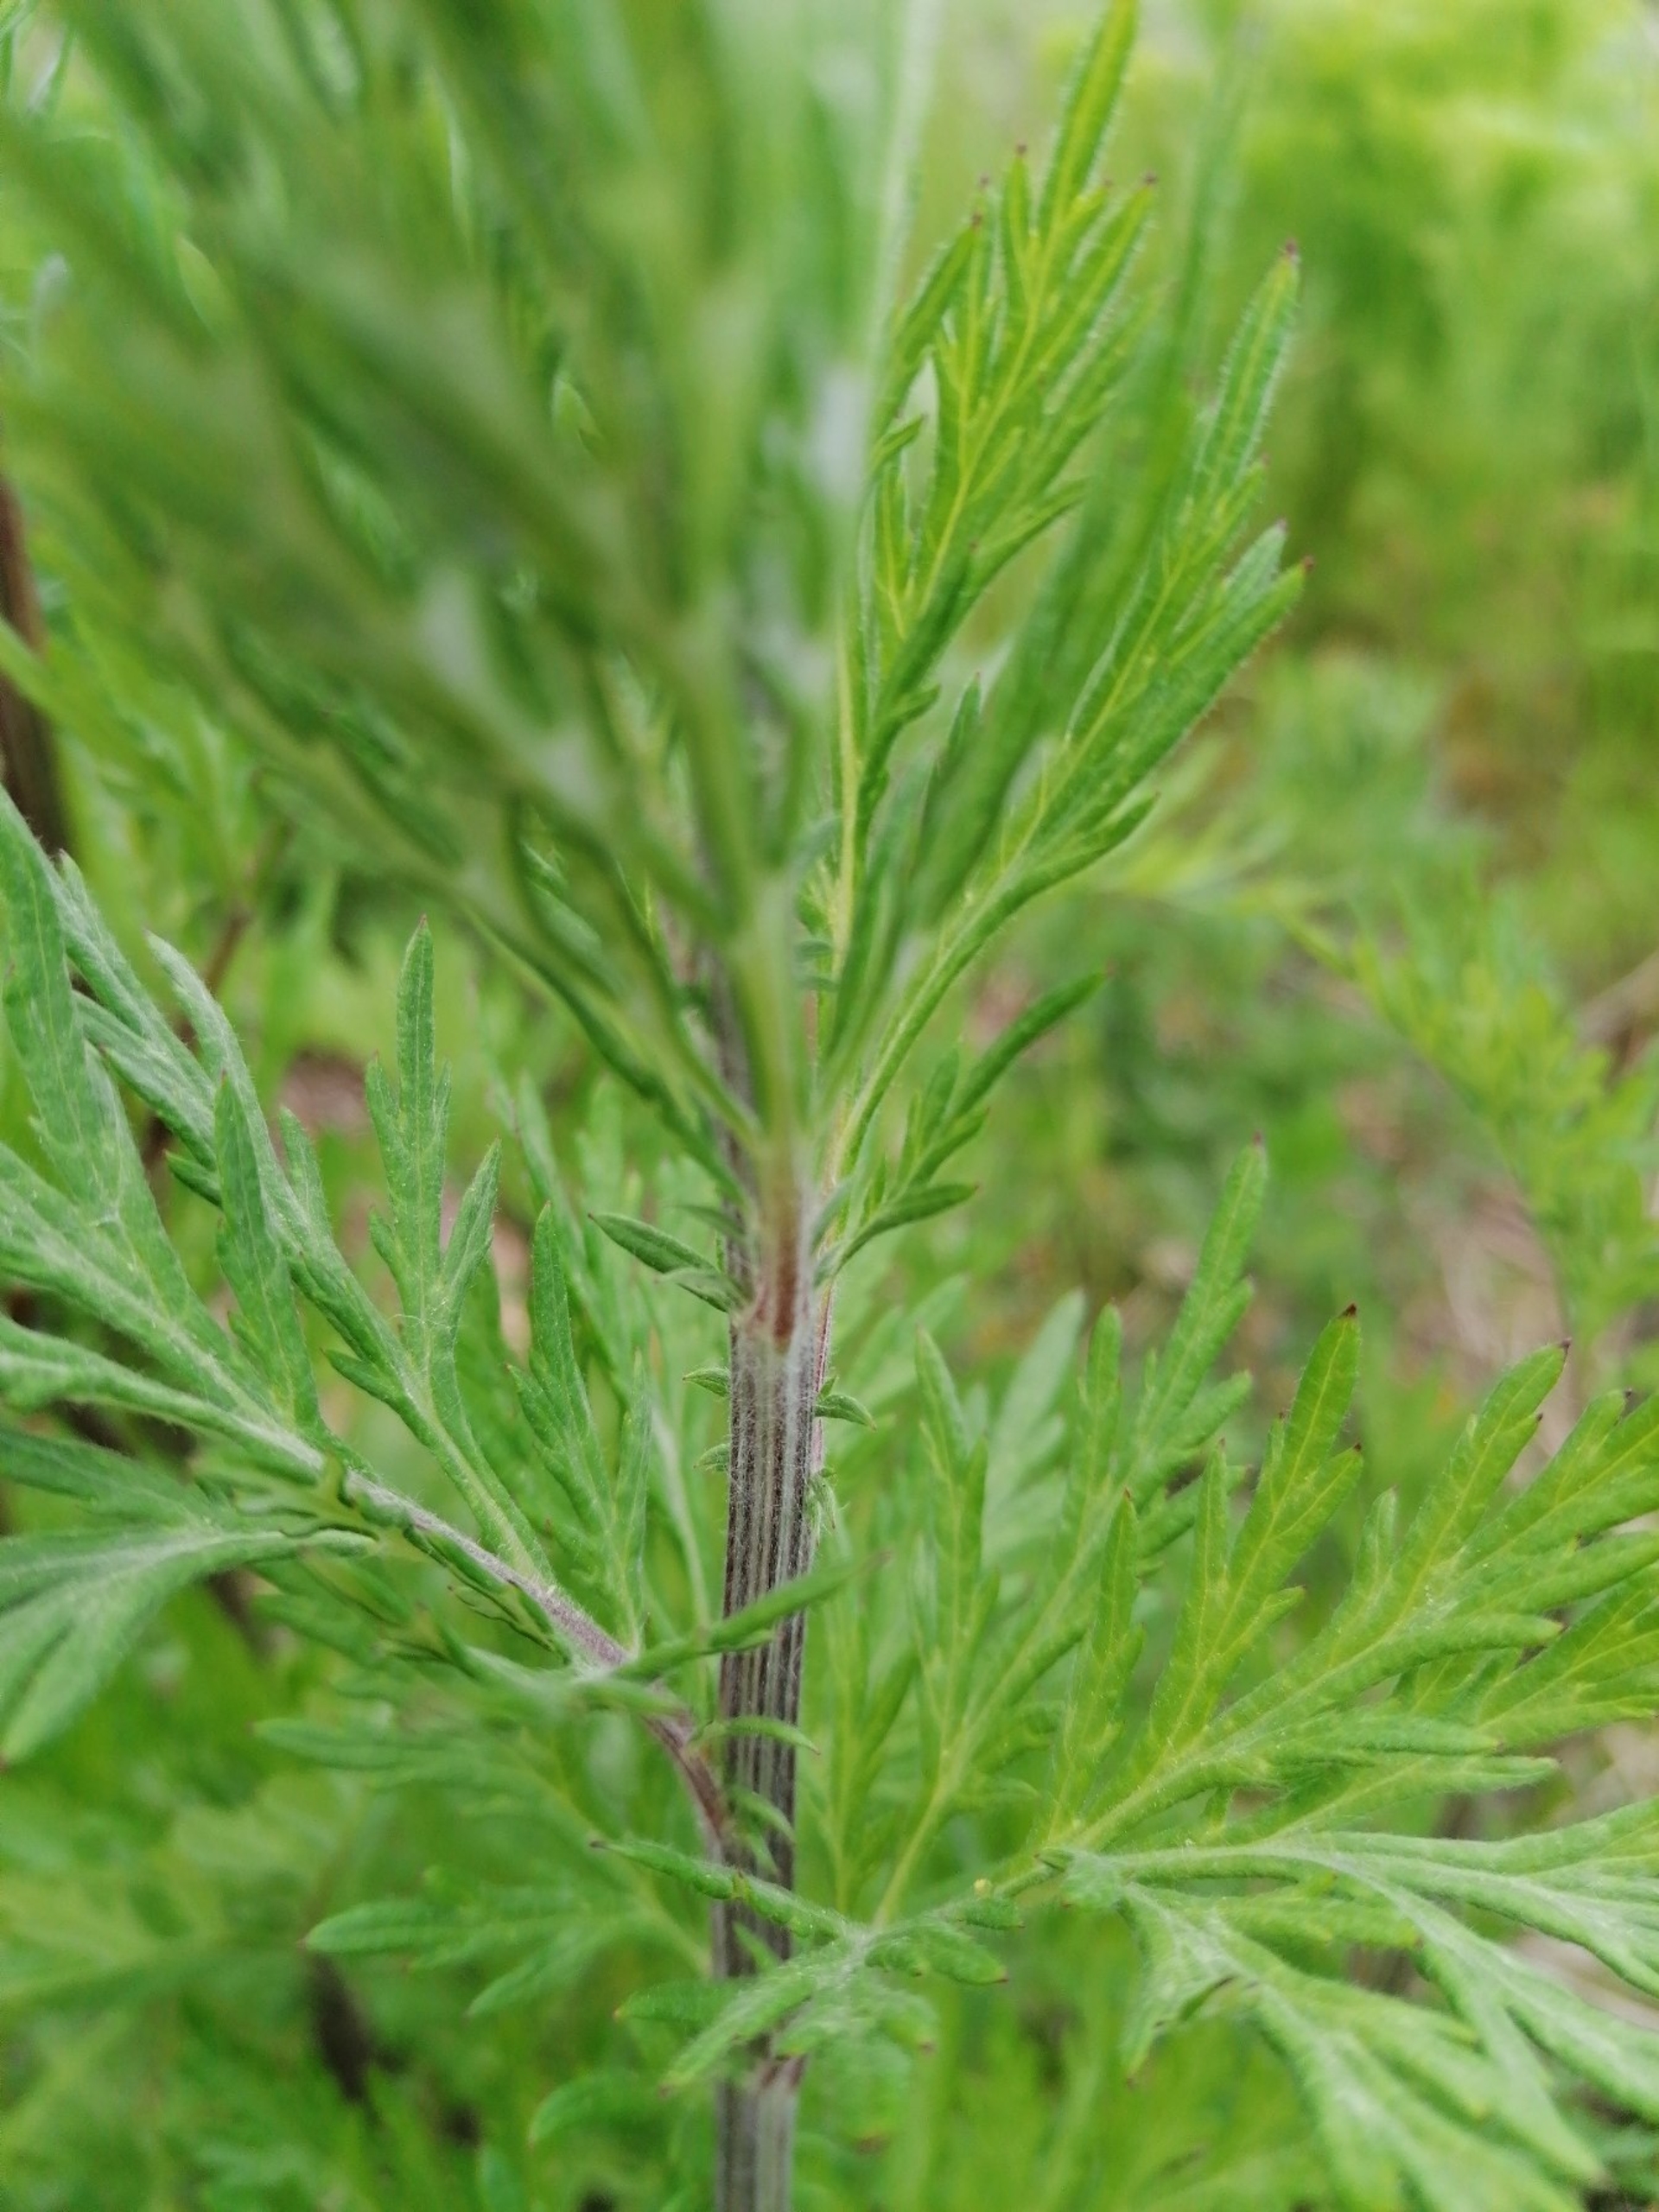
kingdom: Plantae
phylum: Tracheophyta
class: Magnoliopsida
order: Asterales
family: Asteraceae
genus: Artemisia
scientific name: Artemisia vulgaris
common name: Grå-bynke
